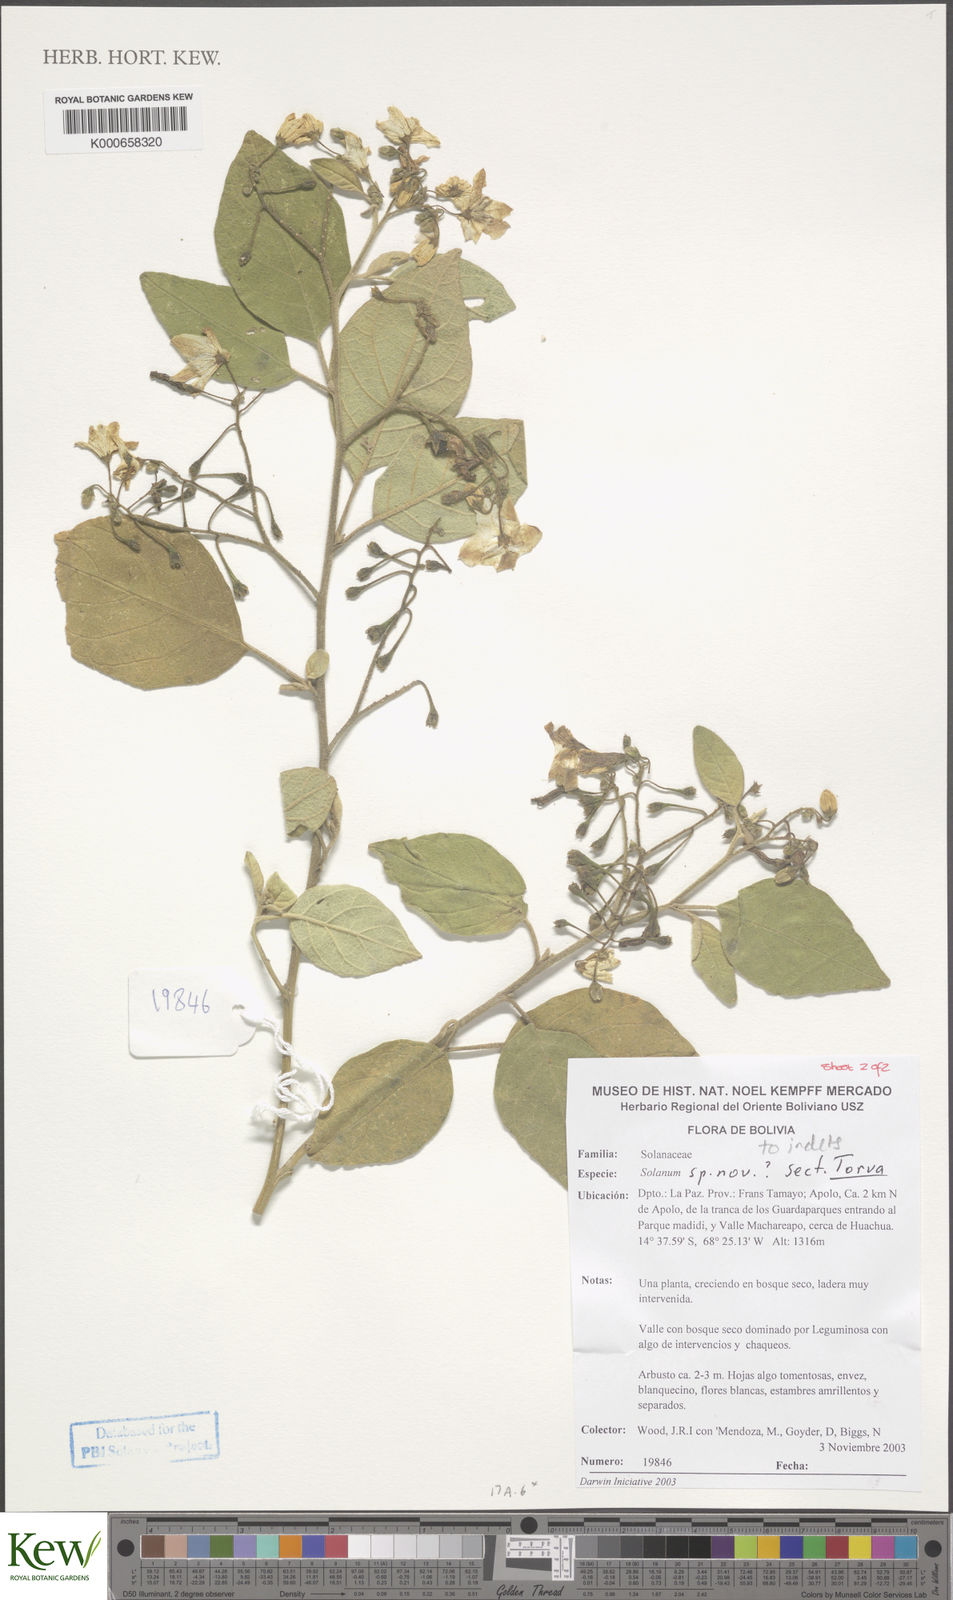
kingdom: Plantae
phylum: Tracheophyta
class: Magnoliopsida
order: Solanales
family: Solanaceae
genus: Solanum
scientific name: Solanum
